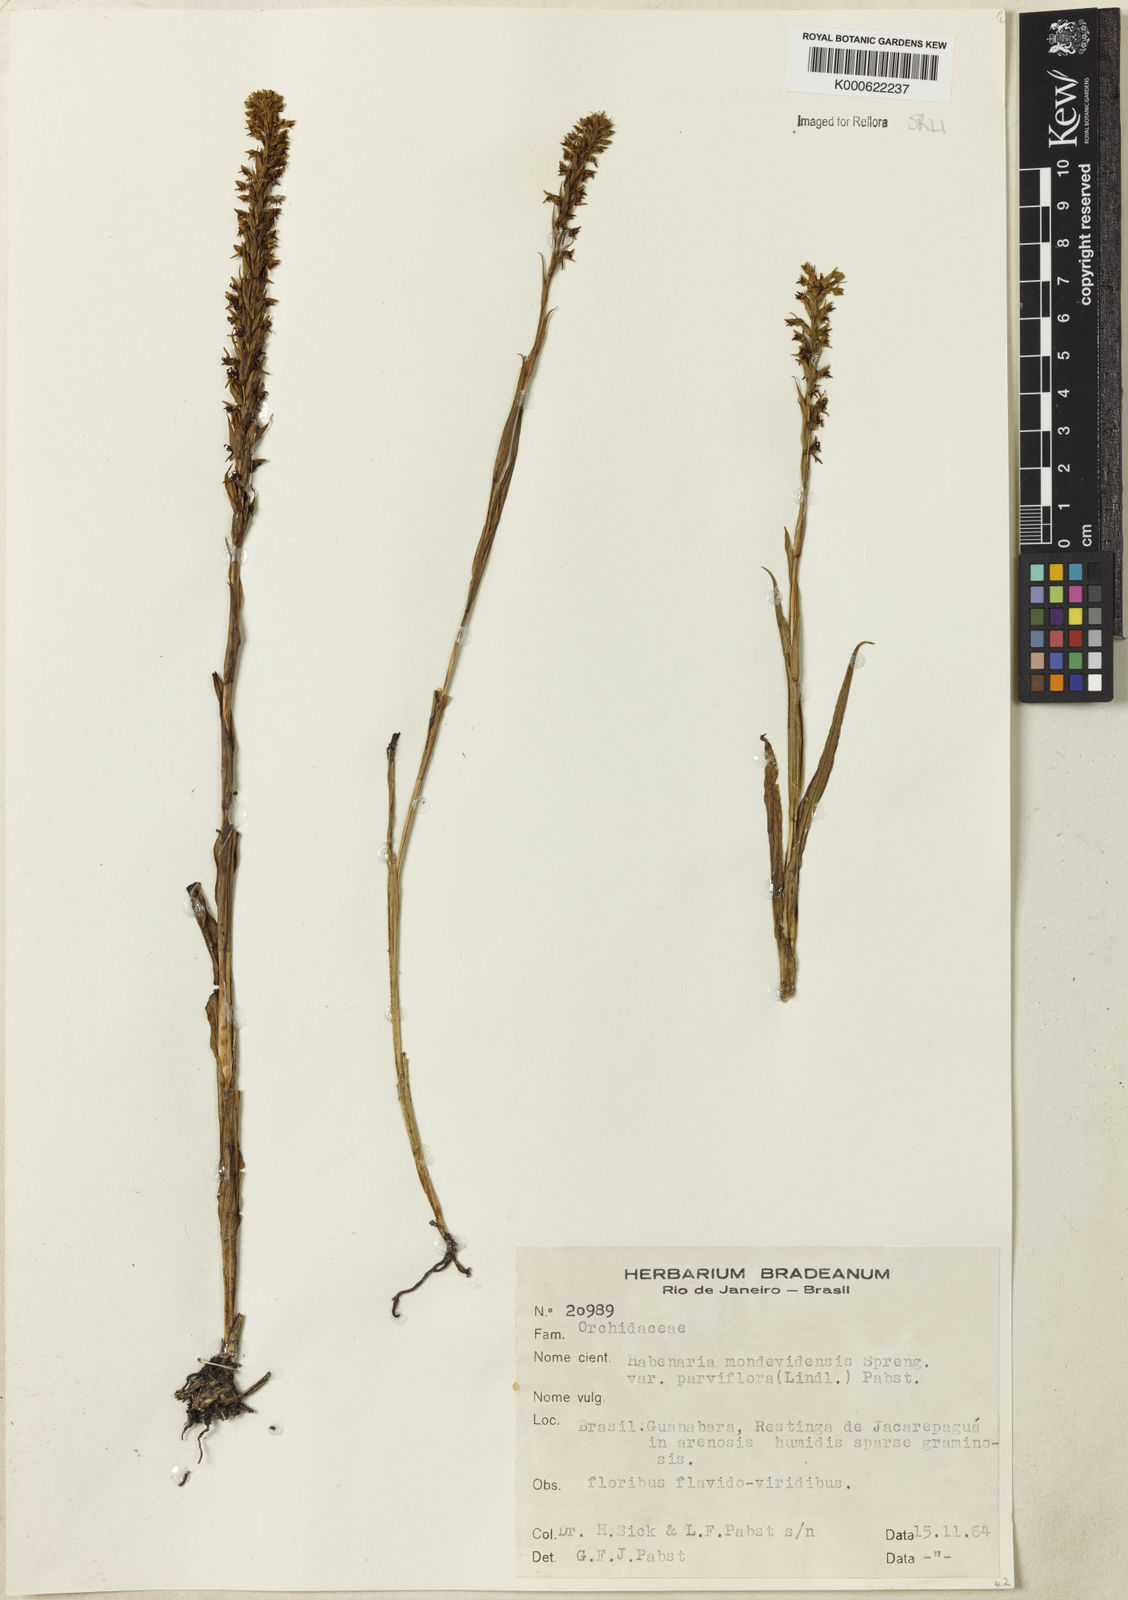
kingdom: Plantae
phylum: Tracheophyta
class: Liliopsida
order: Asparagales
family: Orchidaceae
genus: Habenaria
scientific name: Habenaria parviflora
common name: Small flowered habenaria
